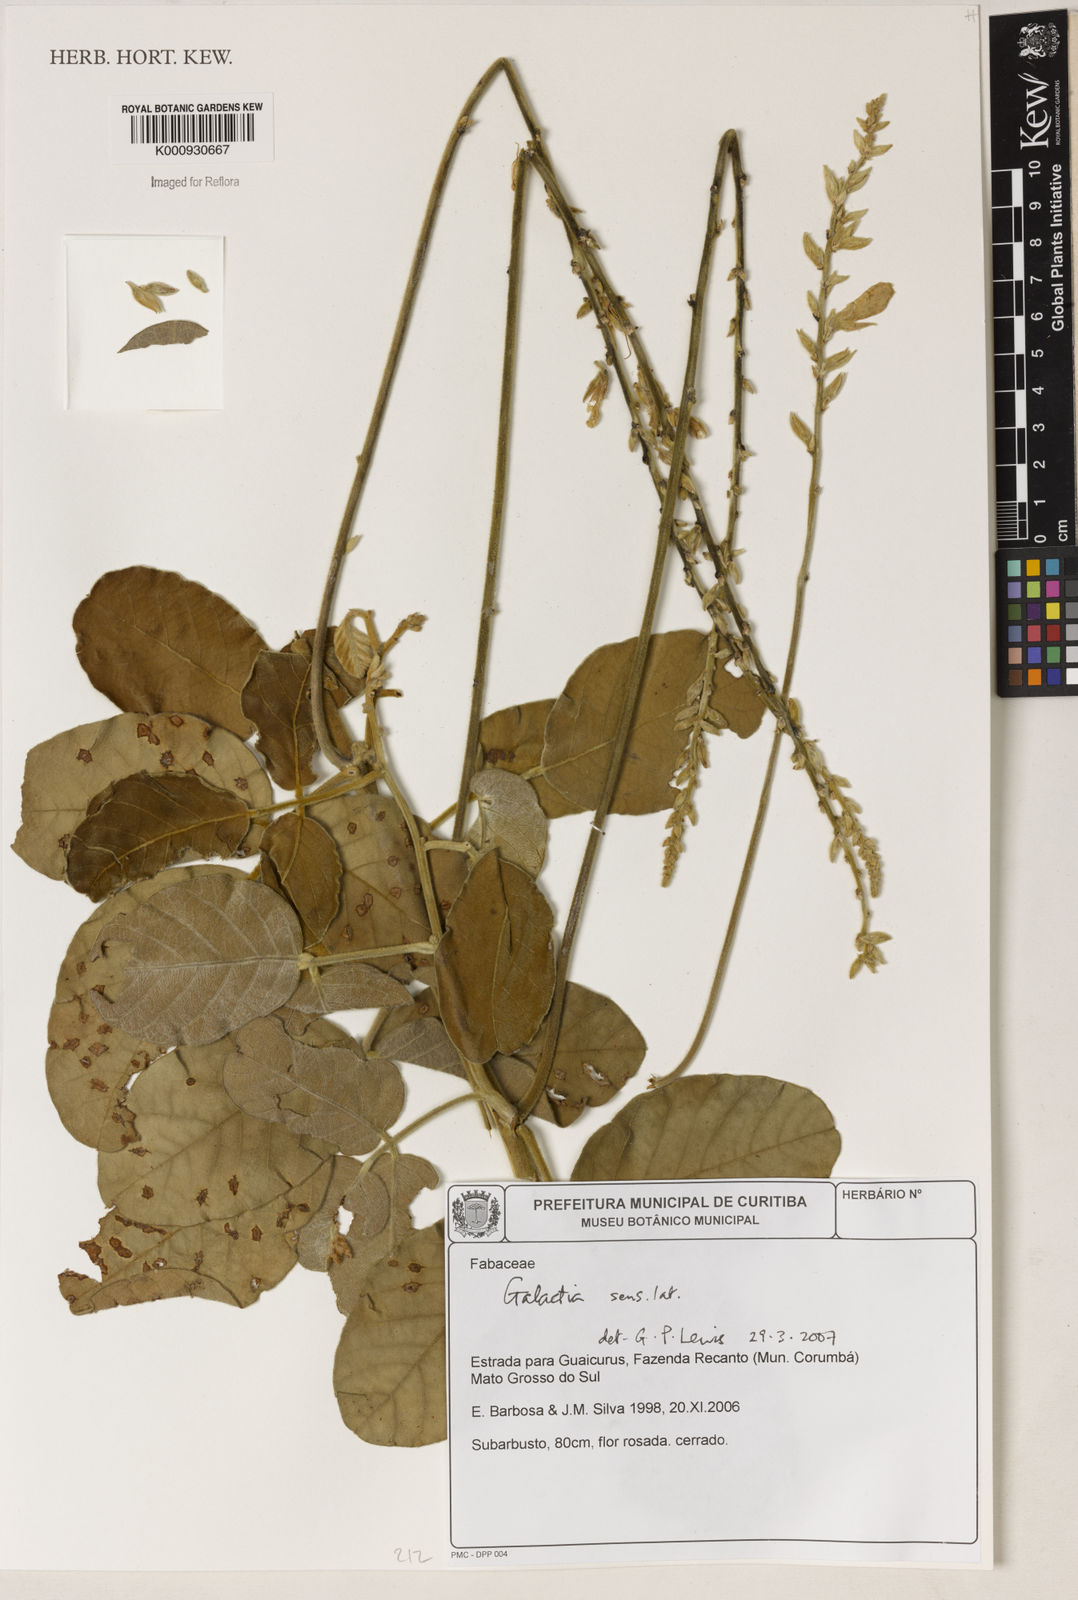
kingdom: Plantae
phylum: Tracheophyta
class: Magnoliopsida
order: Fabales
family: Fabaceae
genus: Galactia
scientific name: Galactia
